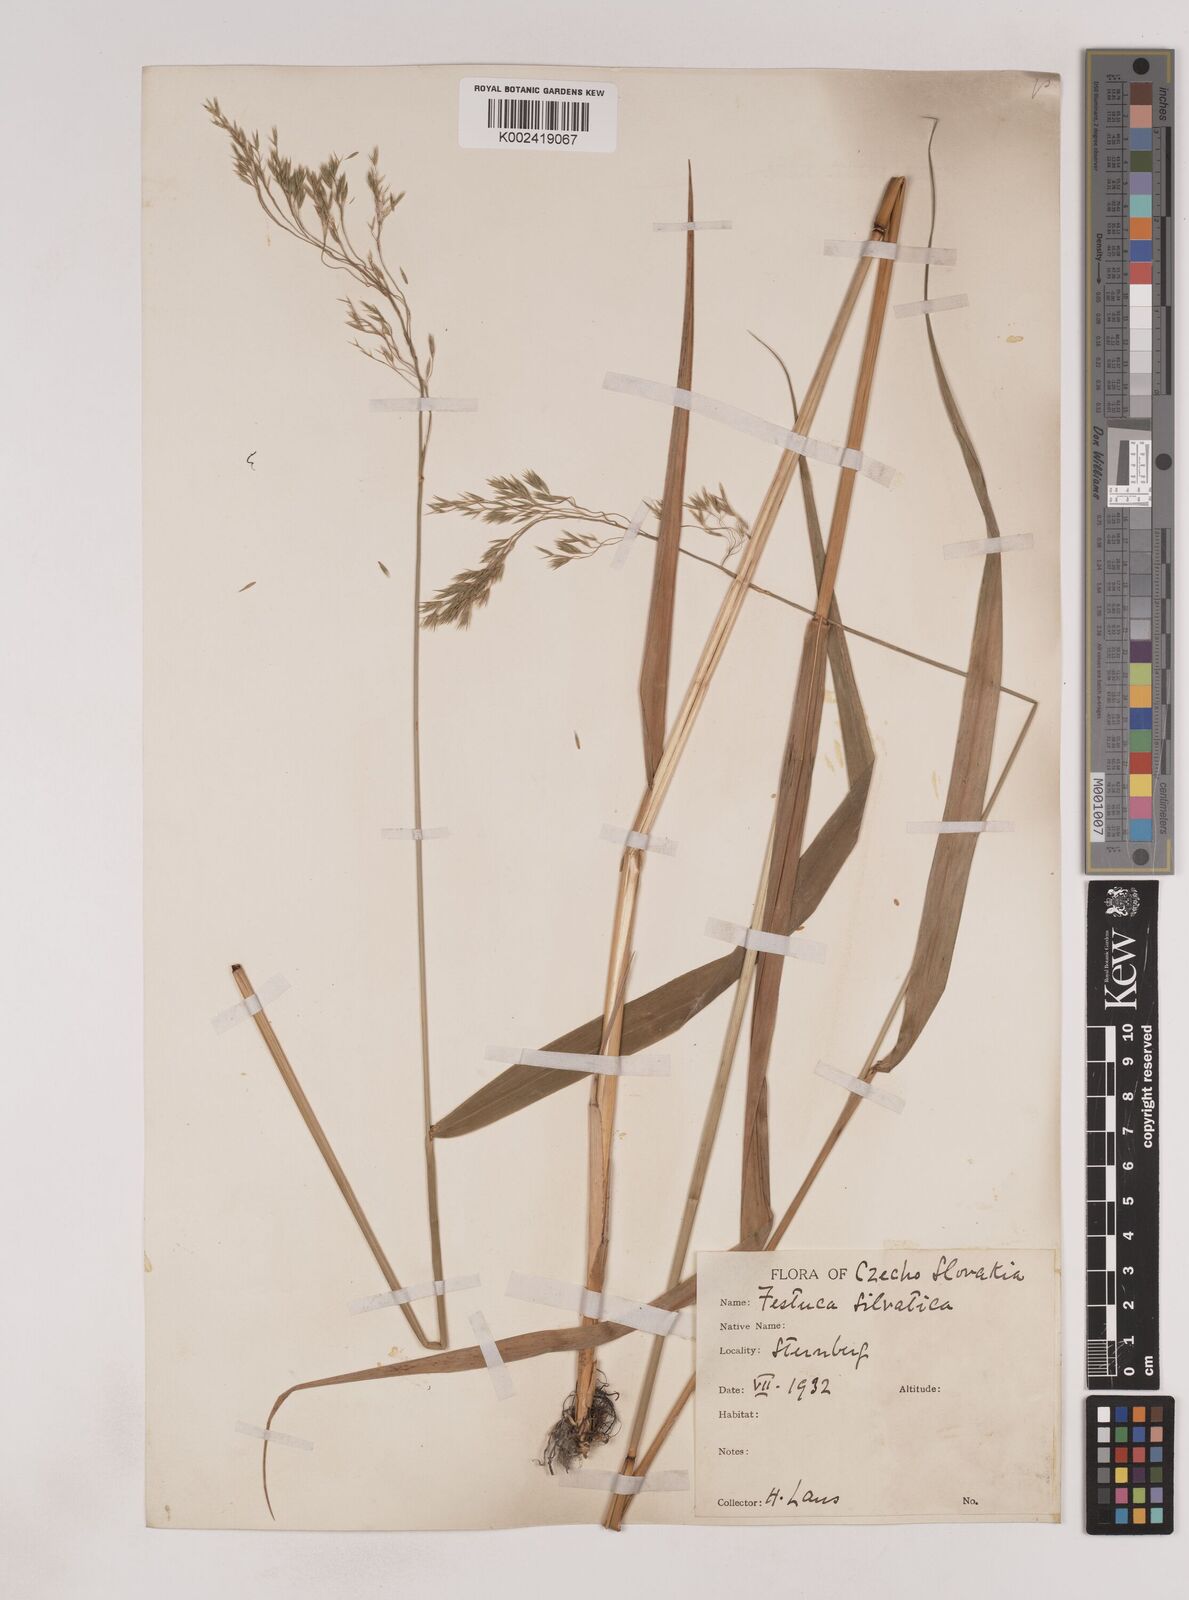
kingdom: Plantae
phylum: Tracheophyta
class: Liliopsida
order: Poales
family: Poaceae
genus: Festuca
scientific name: Festuca drymeja
